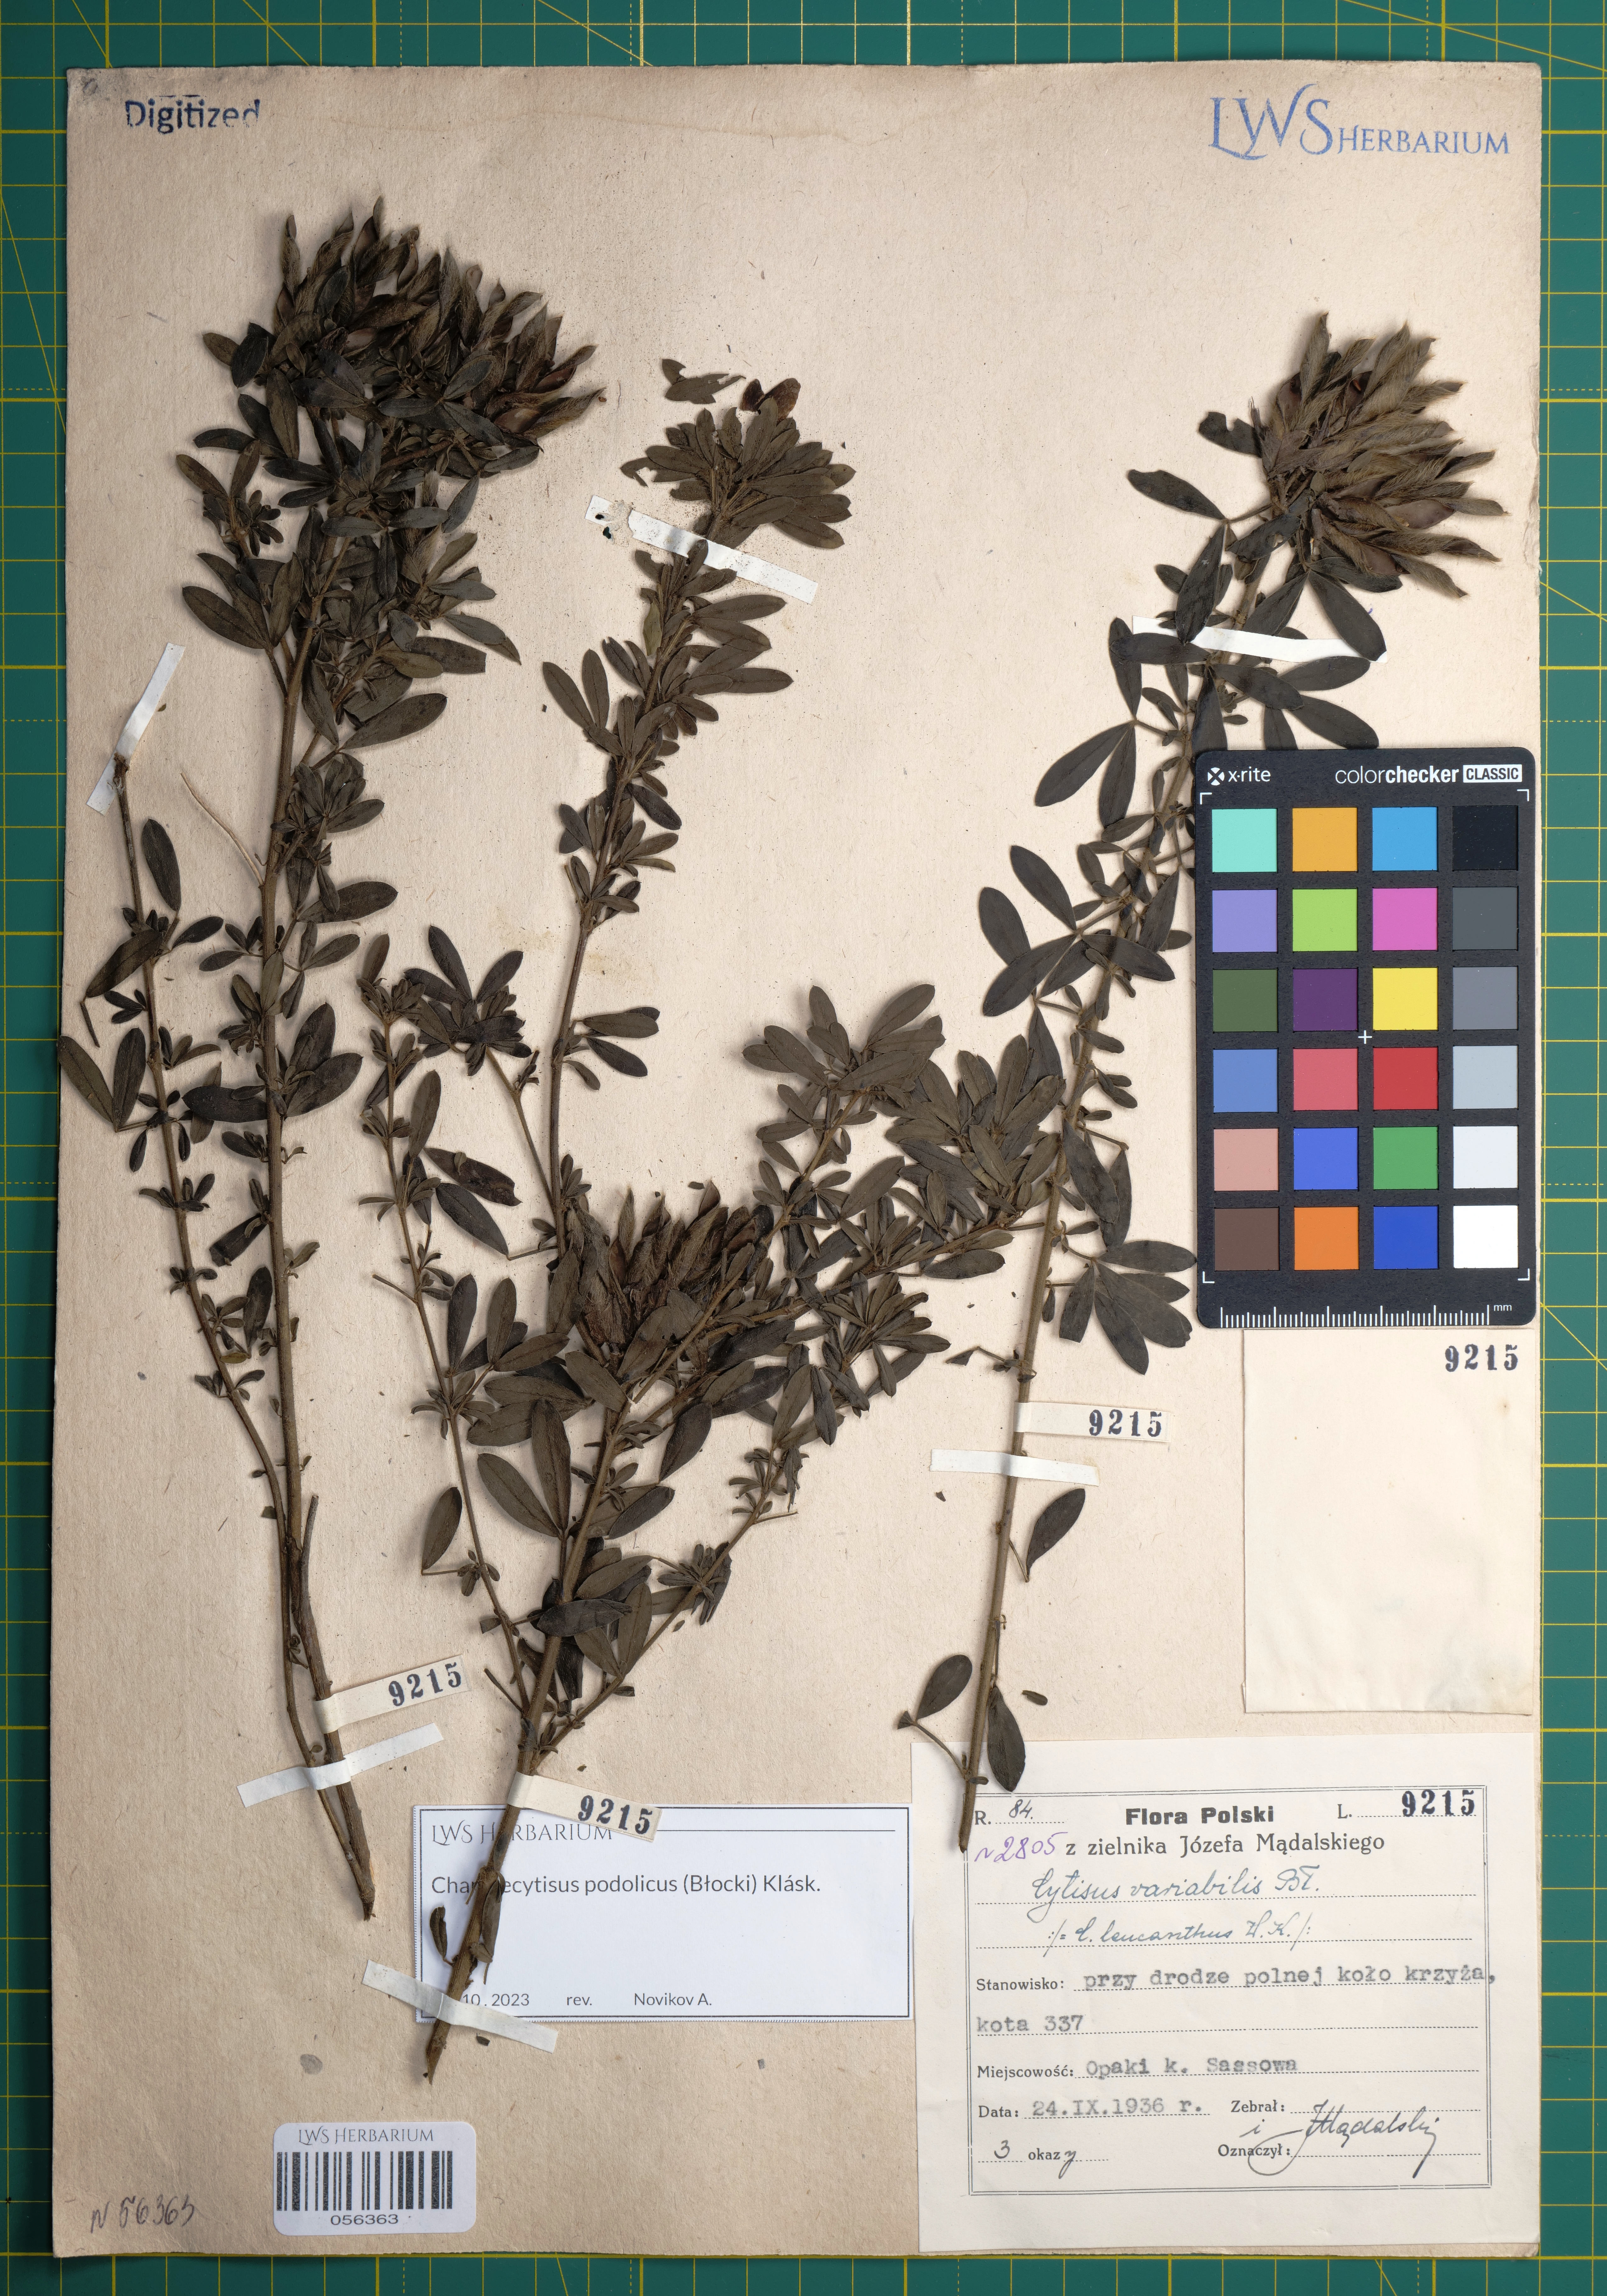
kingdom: Plantae
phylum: Tracheophyta
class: Magnoliopsida
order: Fabales
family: Fabaceae
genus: Chamaecytisus
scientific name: Chamaecytisus podolicus
